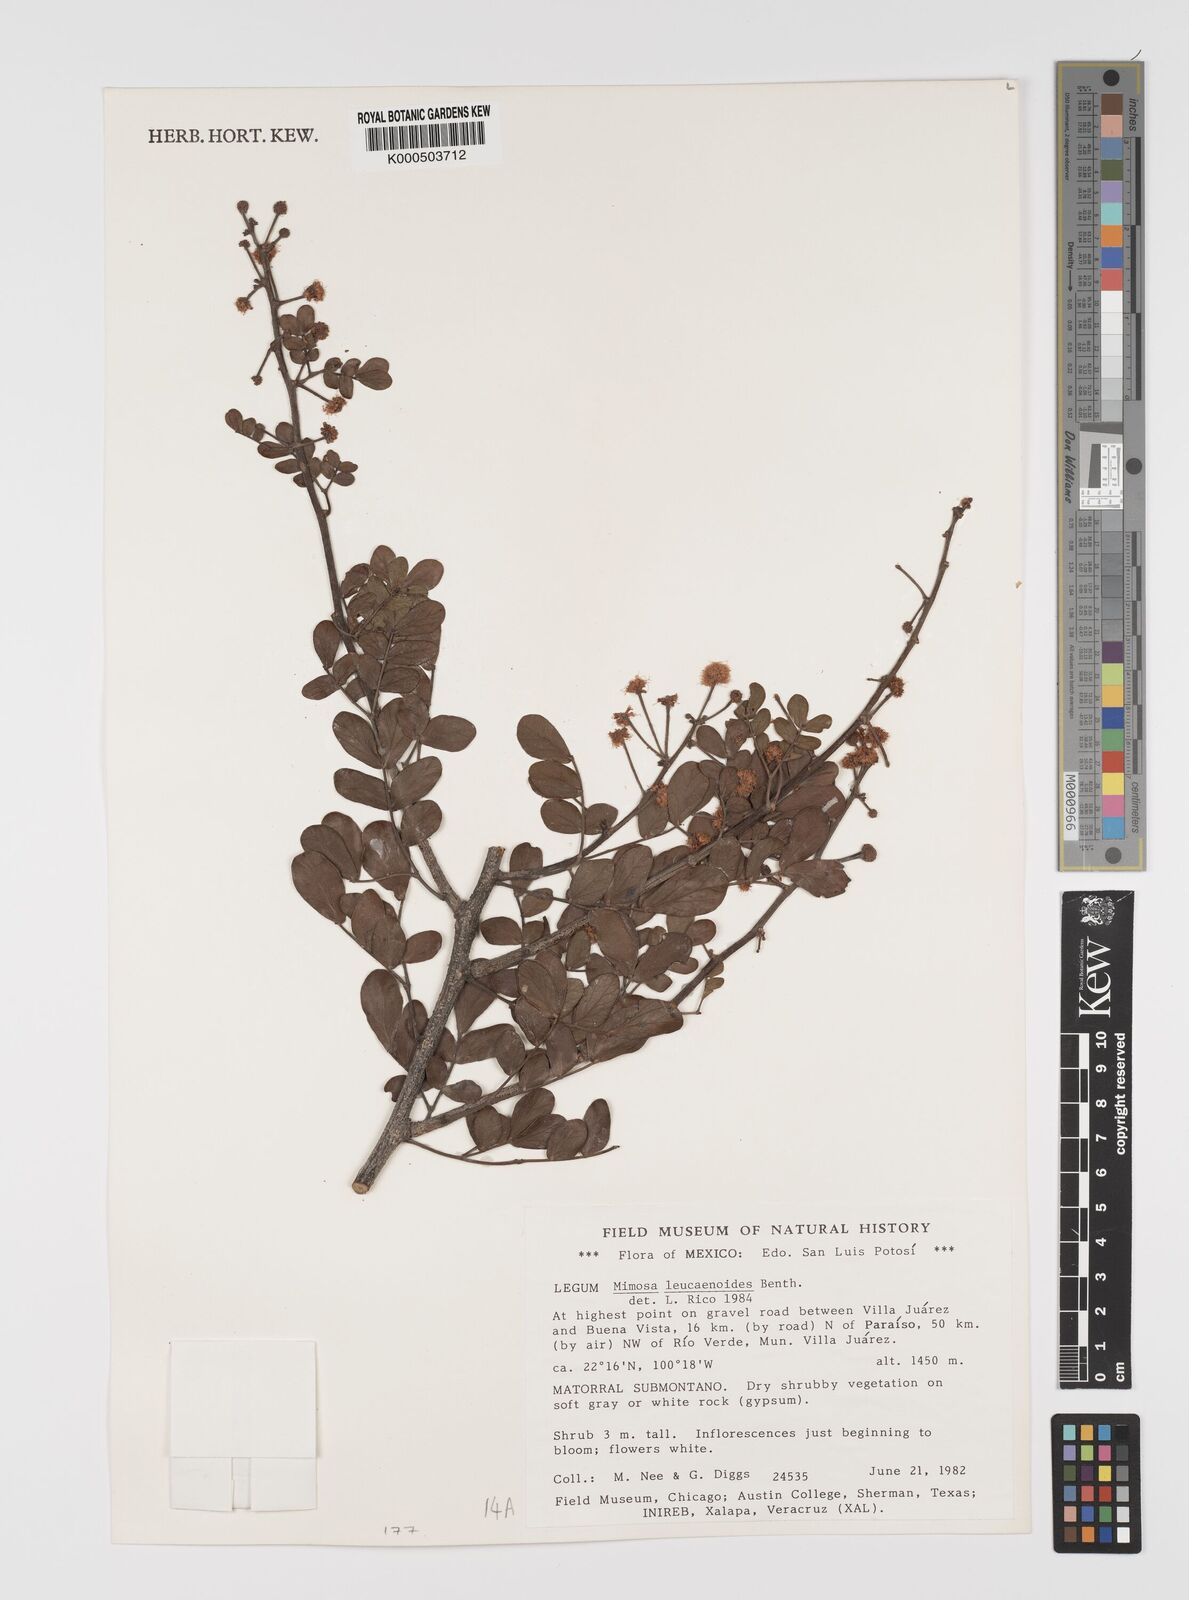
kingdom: Plantae
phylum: Tracheophyta
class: Magnoliopsida
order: Fabales
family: Fabaceae
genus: Mimosa
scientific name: Mimosa leucaenoides
